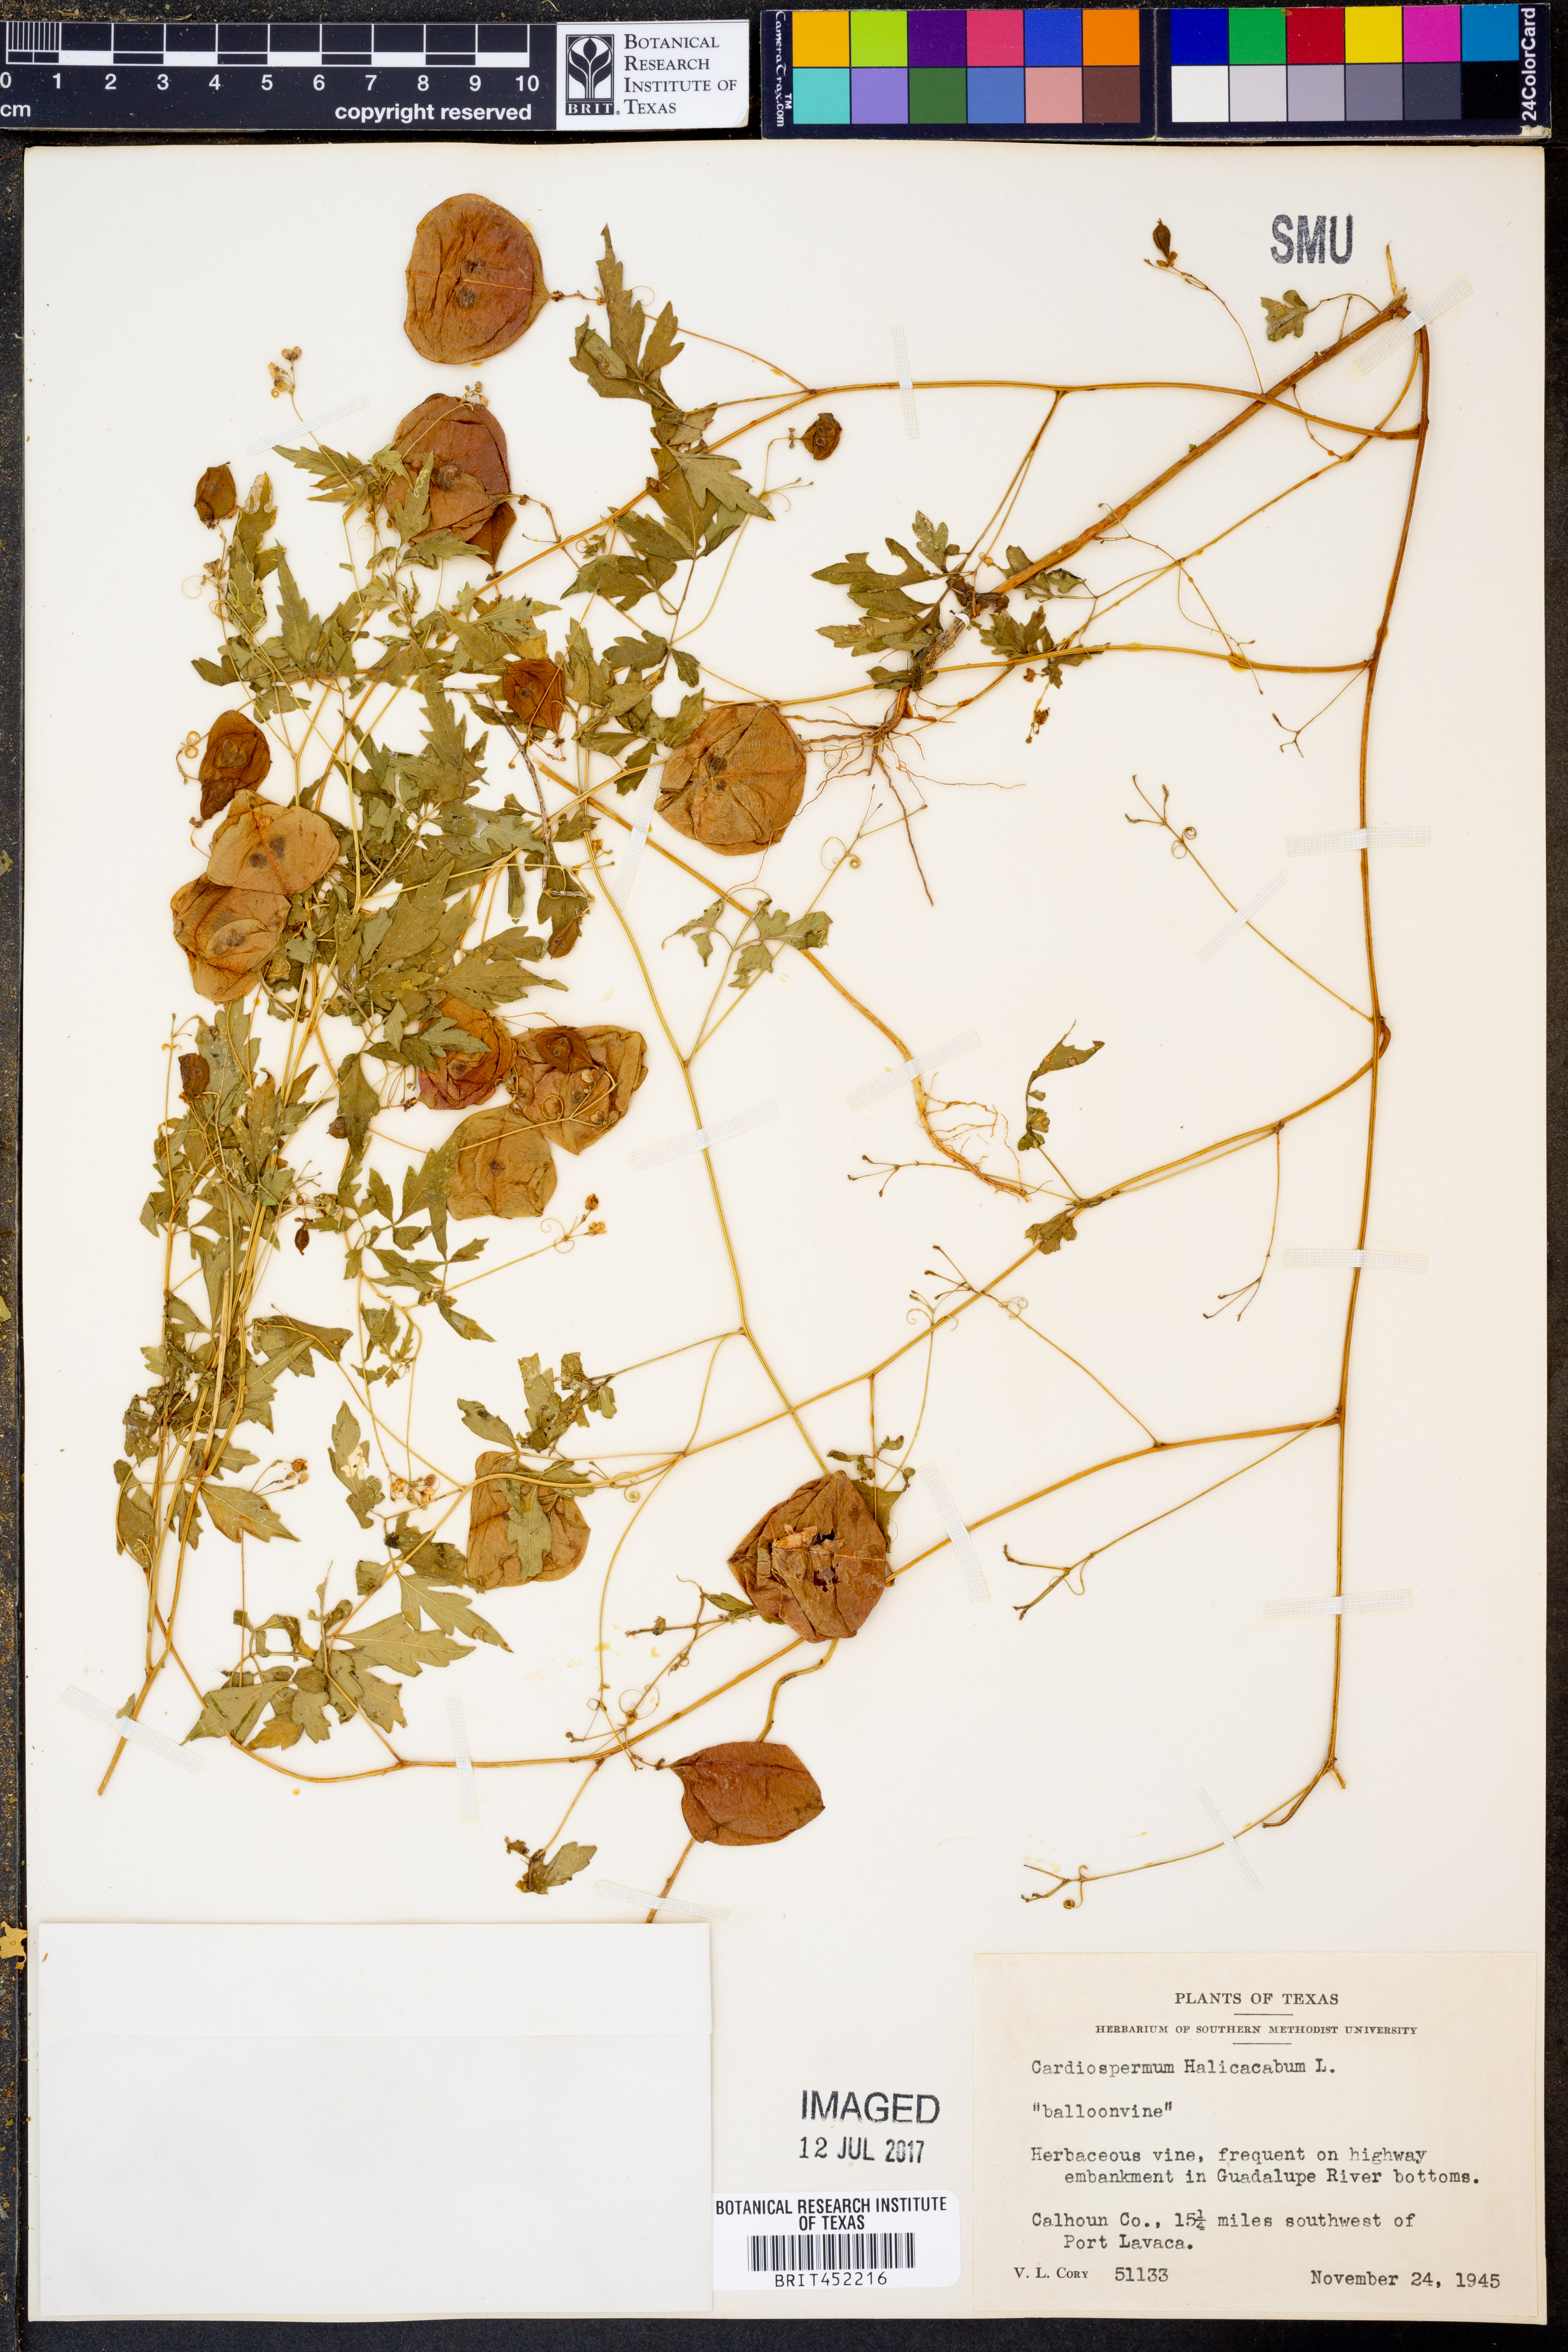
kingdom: Plantae
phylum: Tracheophyta
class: Magnoliopsida
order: Sapindales
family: Sapindaceae
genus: Cardiospermum
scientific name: Cardiospermum halicacabum
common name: Balloon vine
